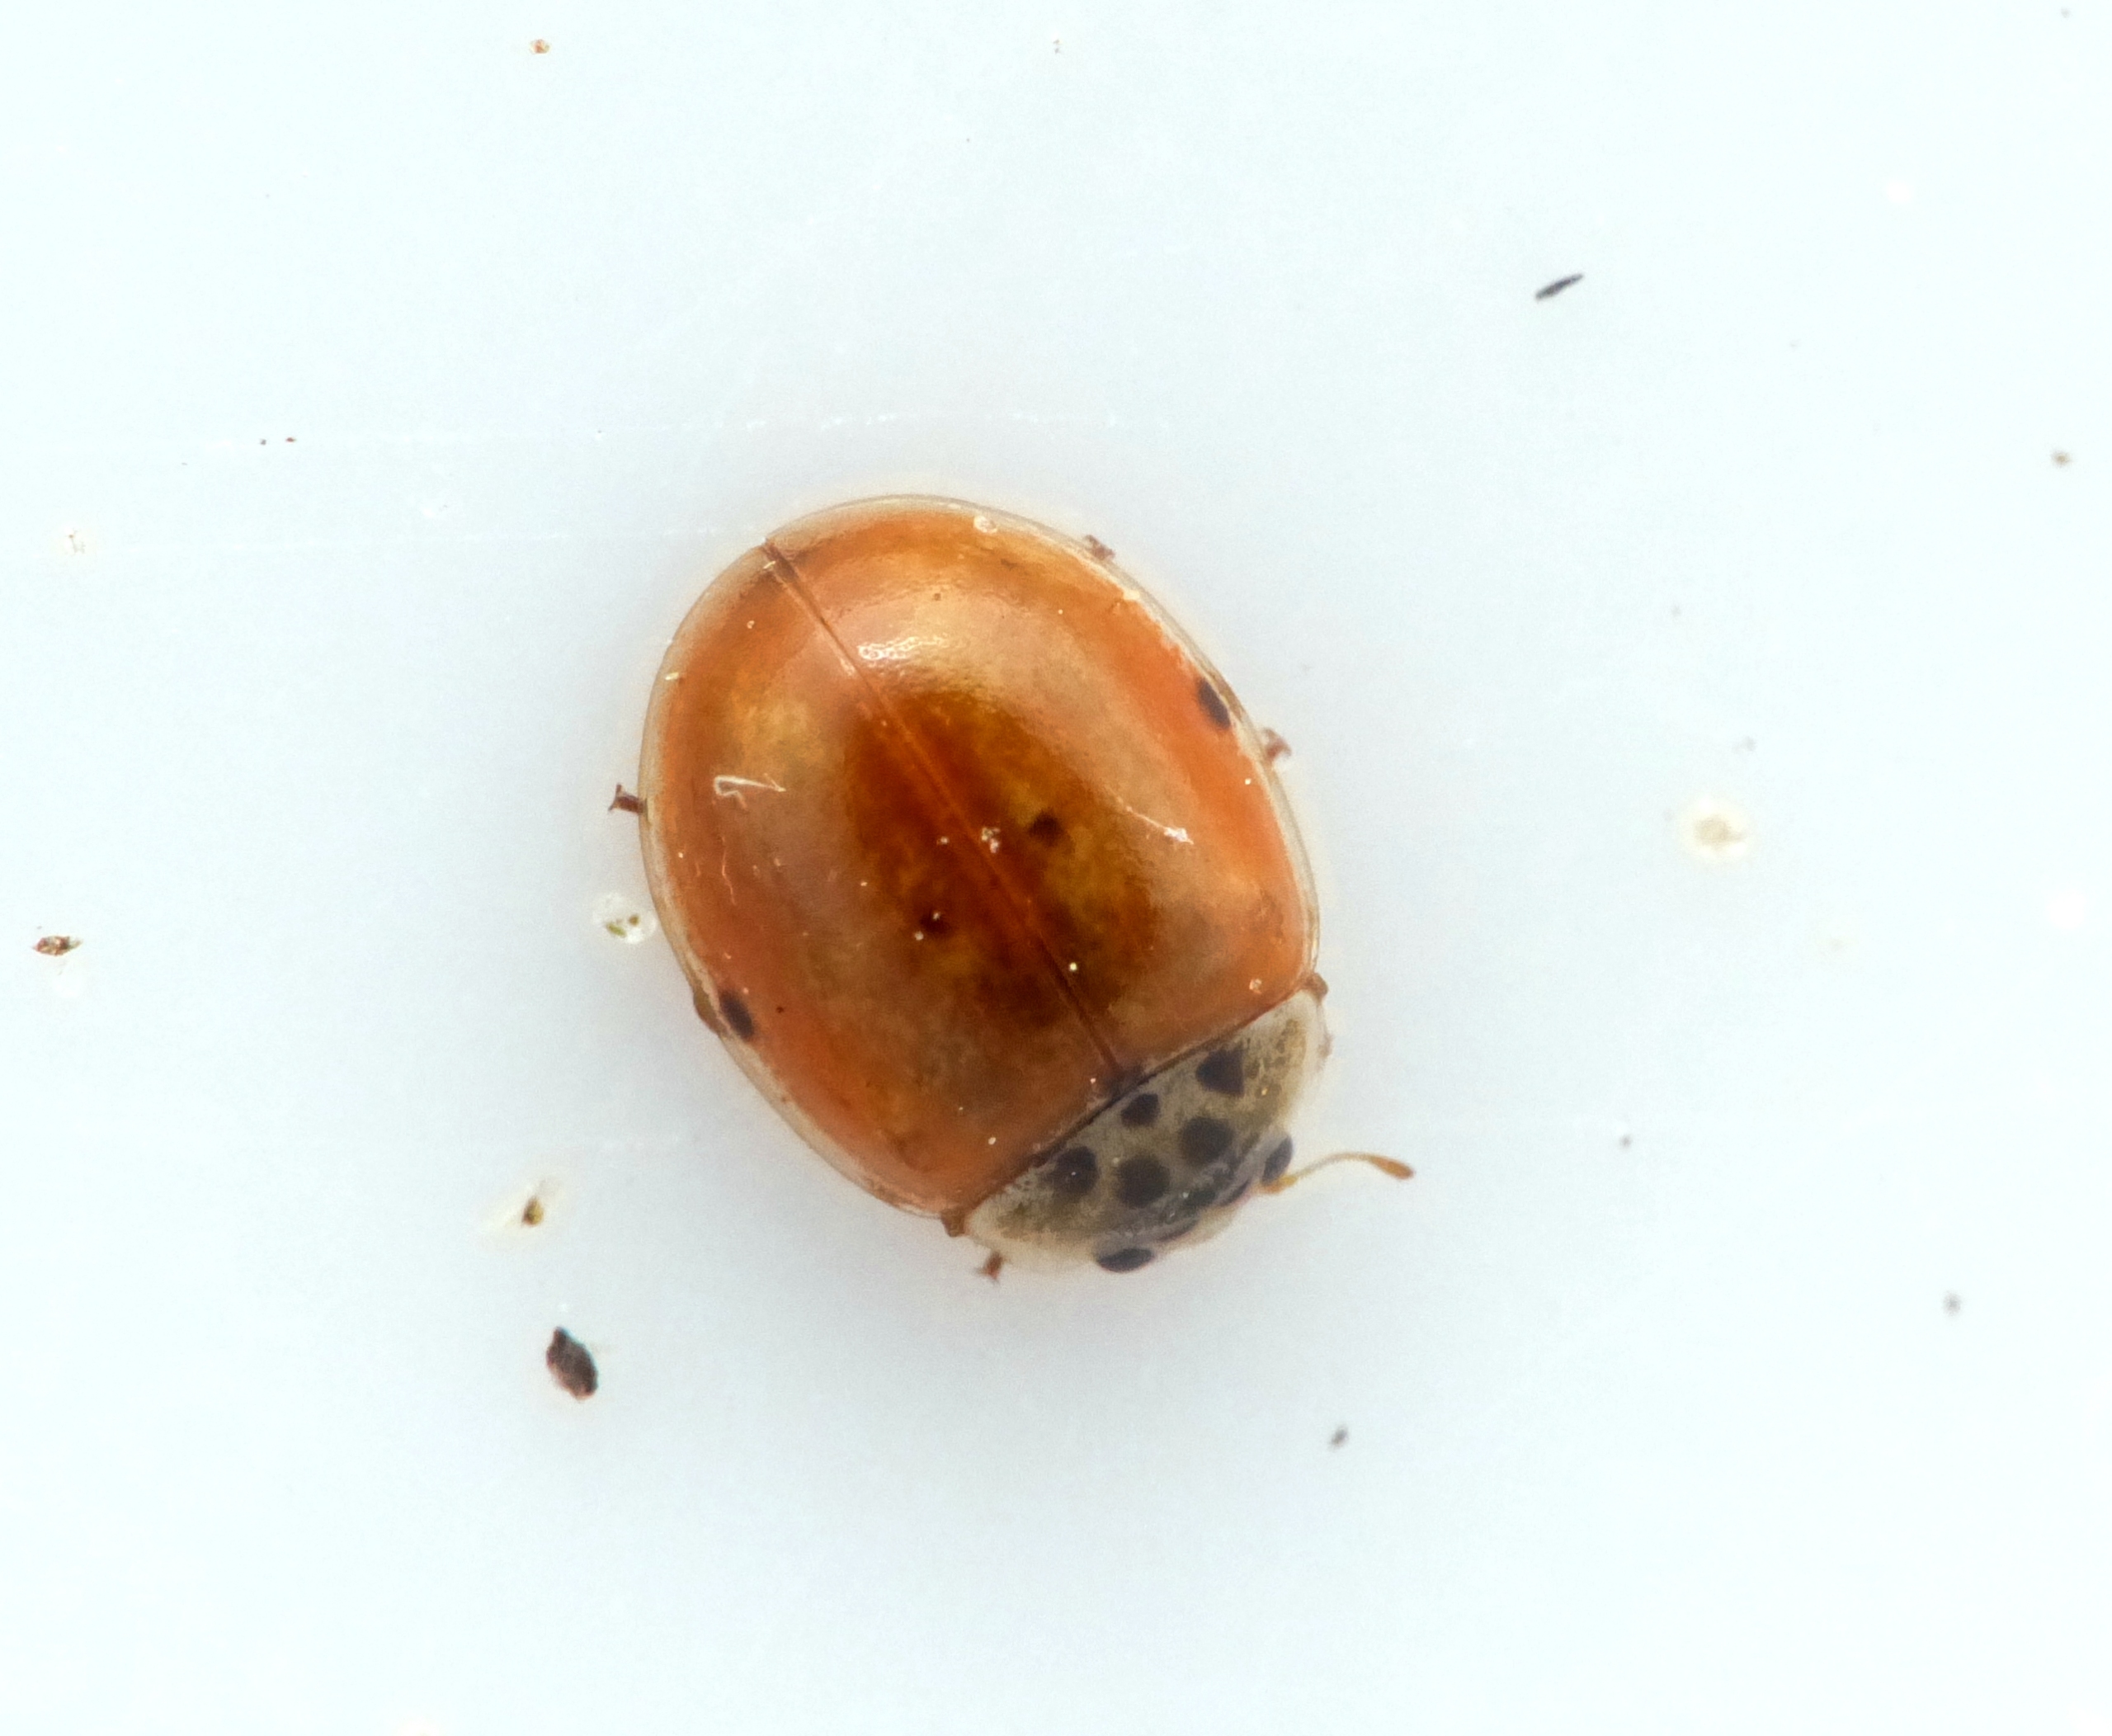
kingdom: Animalia
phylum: Arthropoda
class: Insecta
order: Coleoptera
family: Coccinellidae
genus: Adalia
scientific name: Adalia decempunctata
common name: Tiplettet mariehøne
